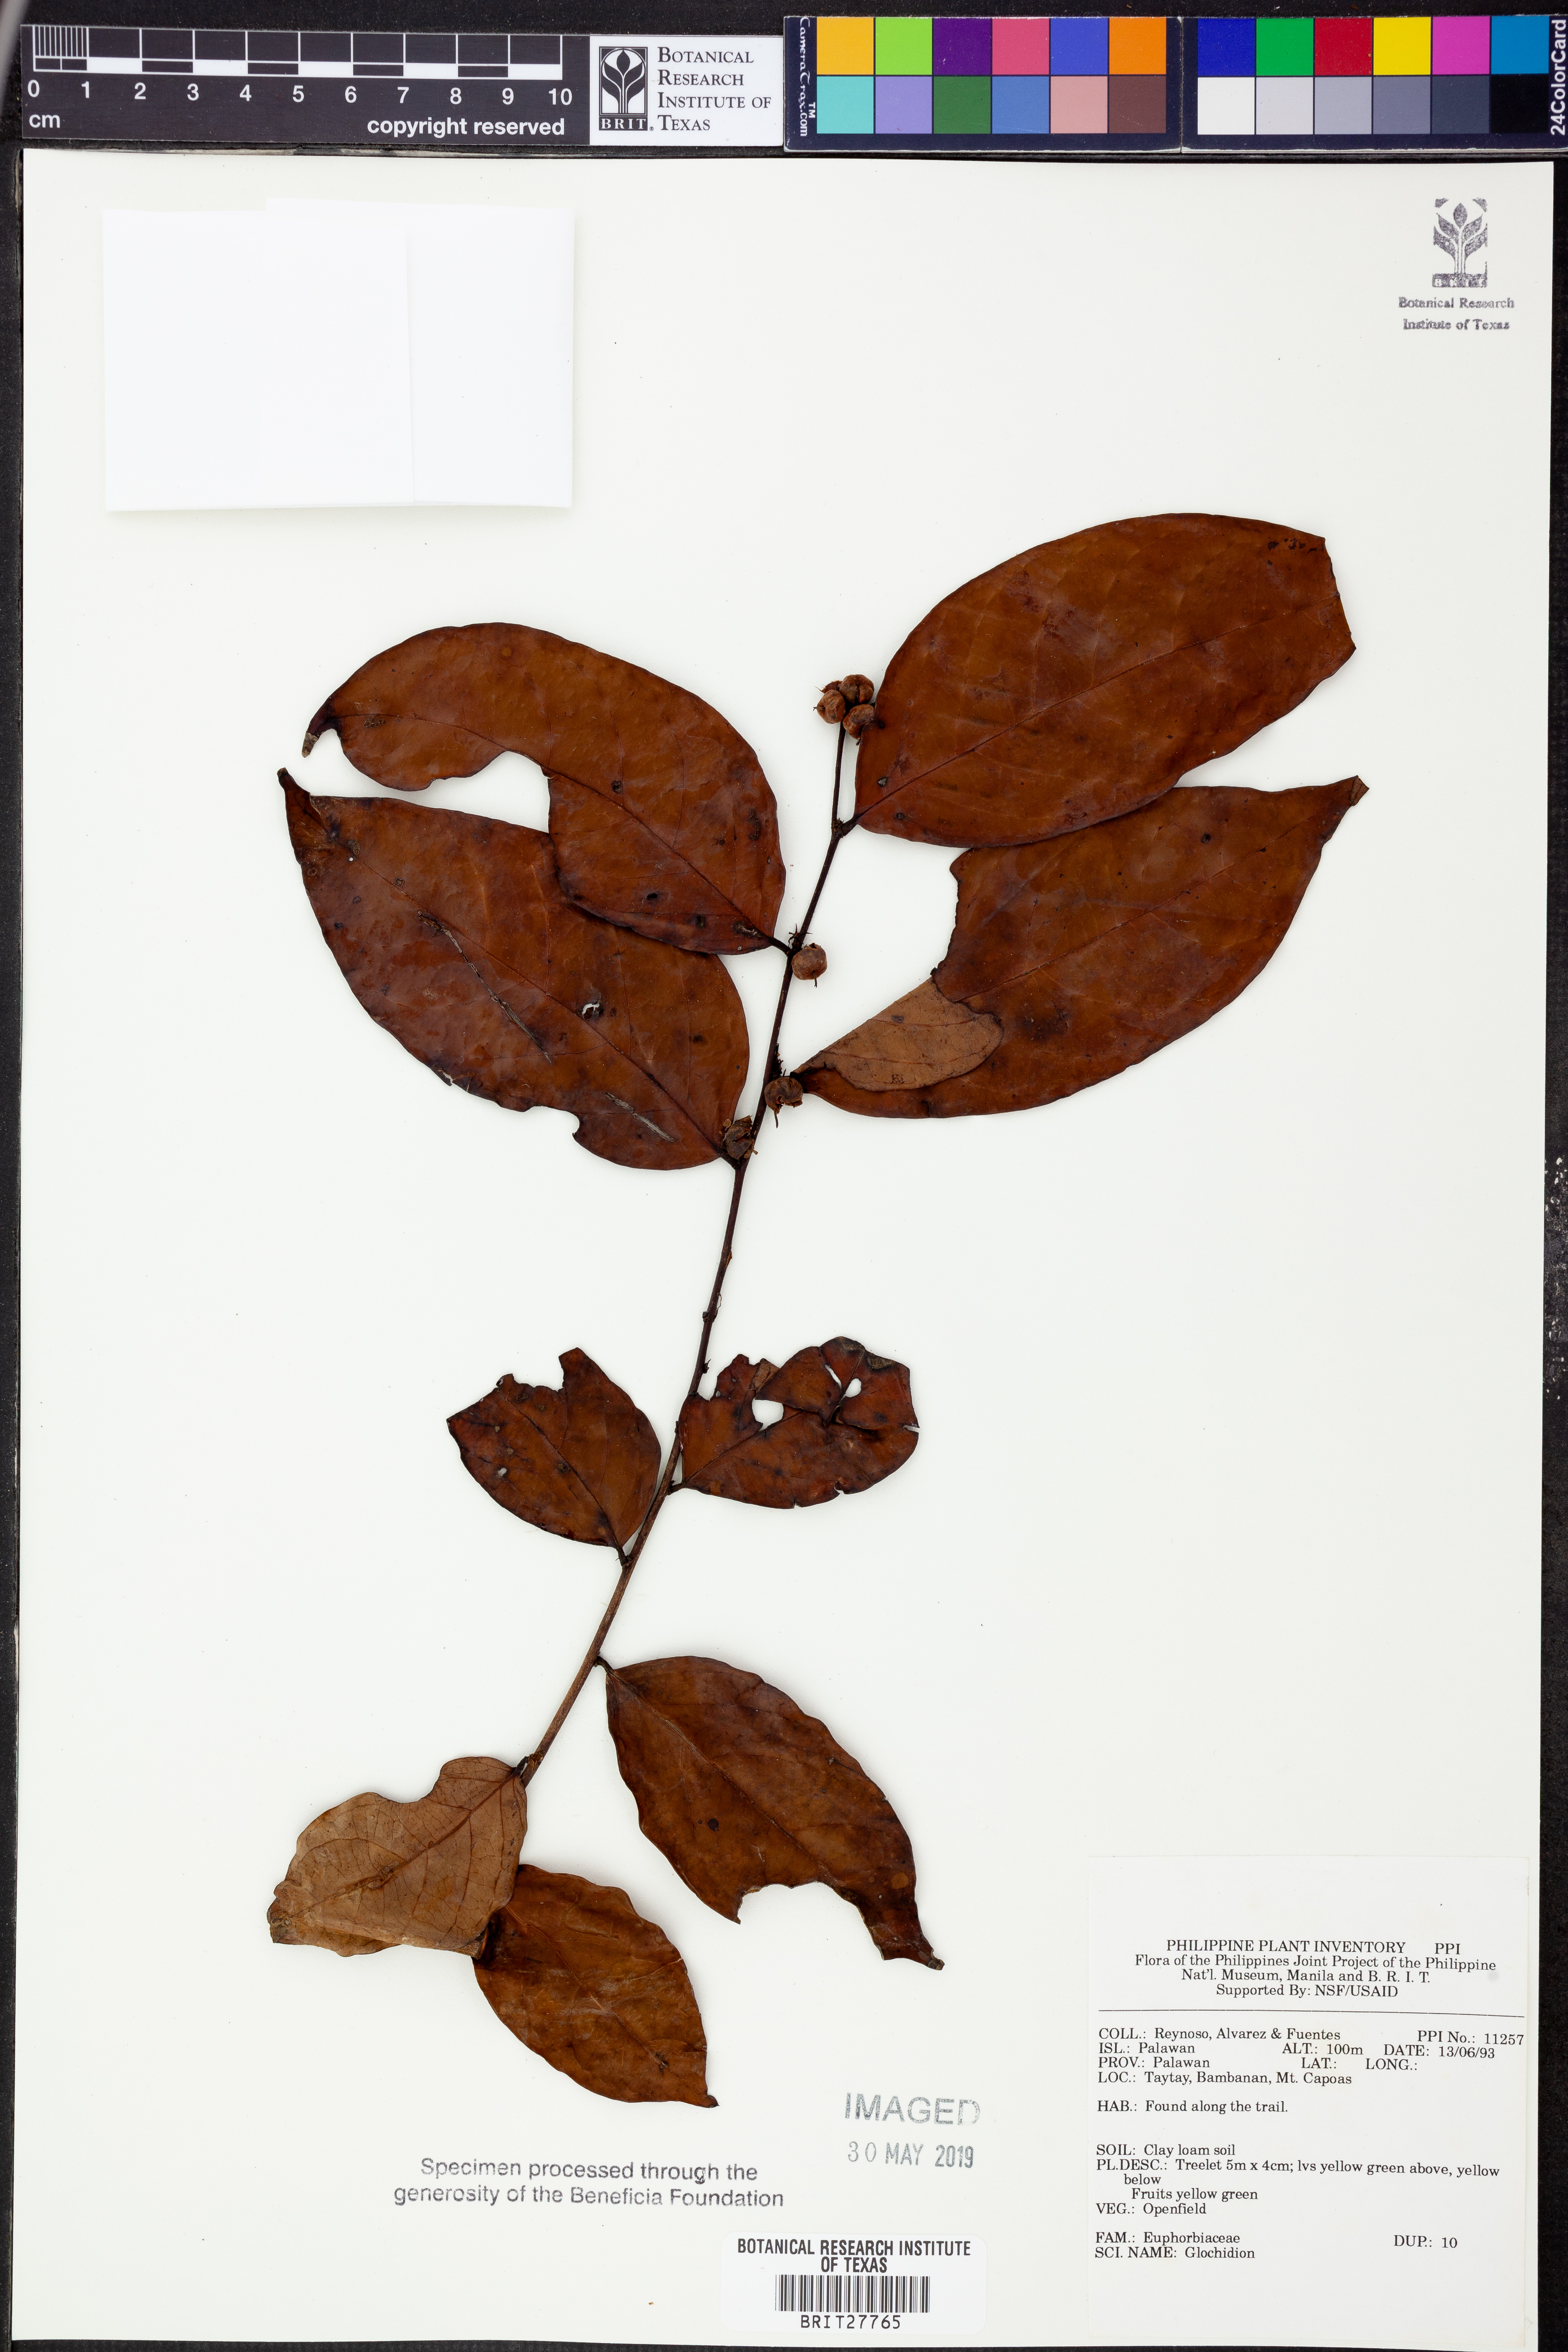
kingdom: Plantae
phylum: Tracheophyta
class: Magnoliopsida
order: Malpighiales
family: Phyllanthaceae
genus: Glochidion
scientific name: Glochidion
